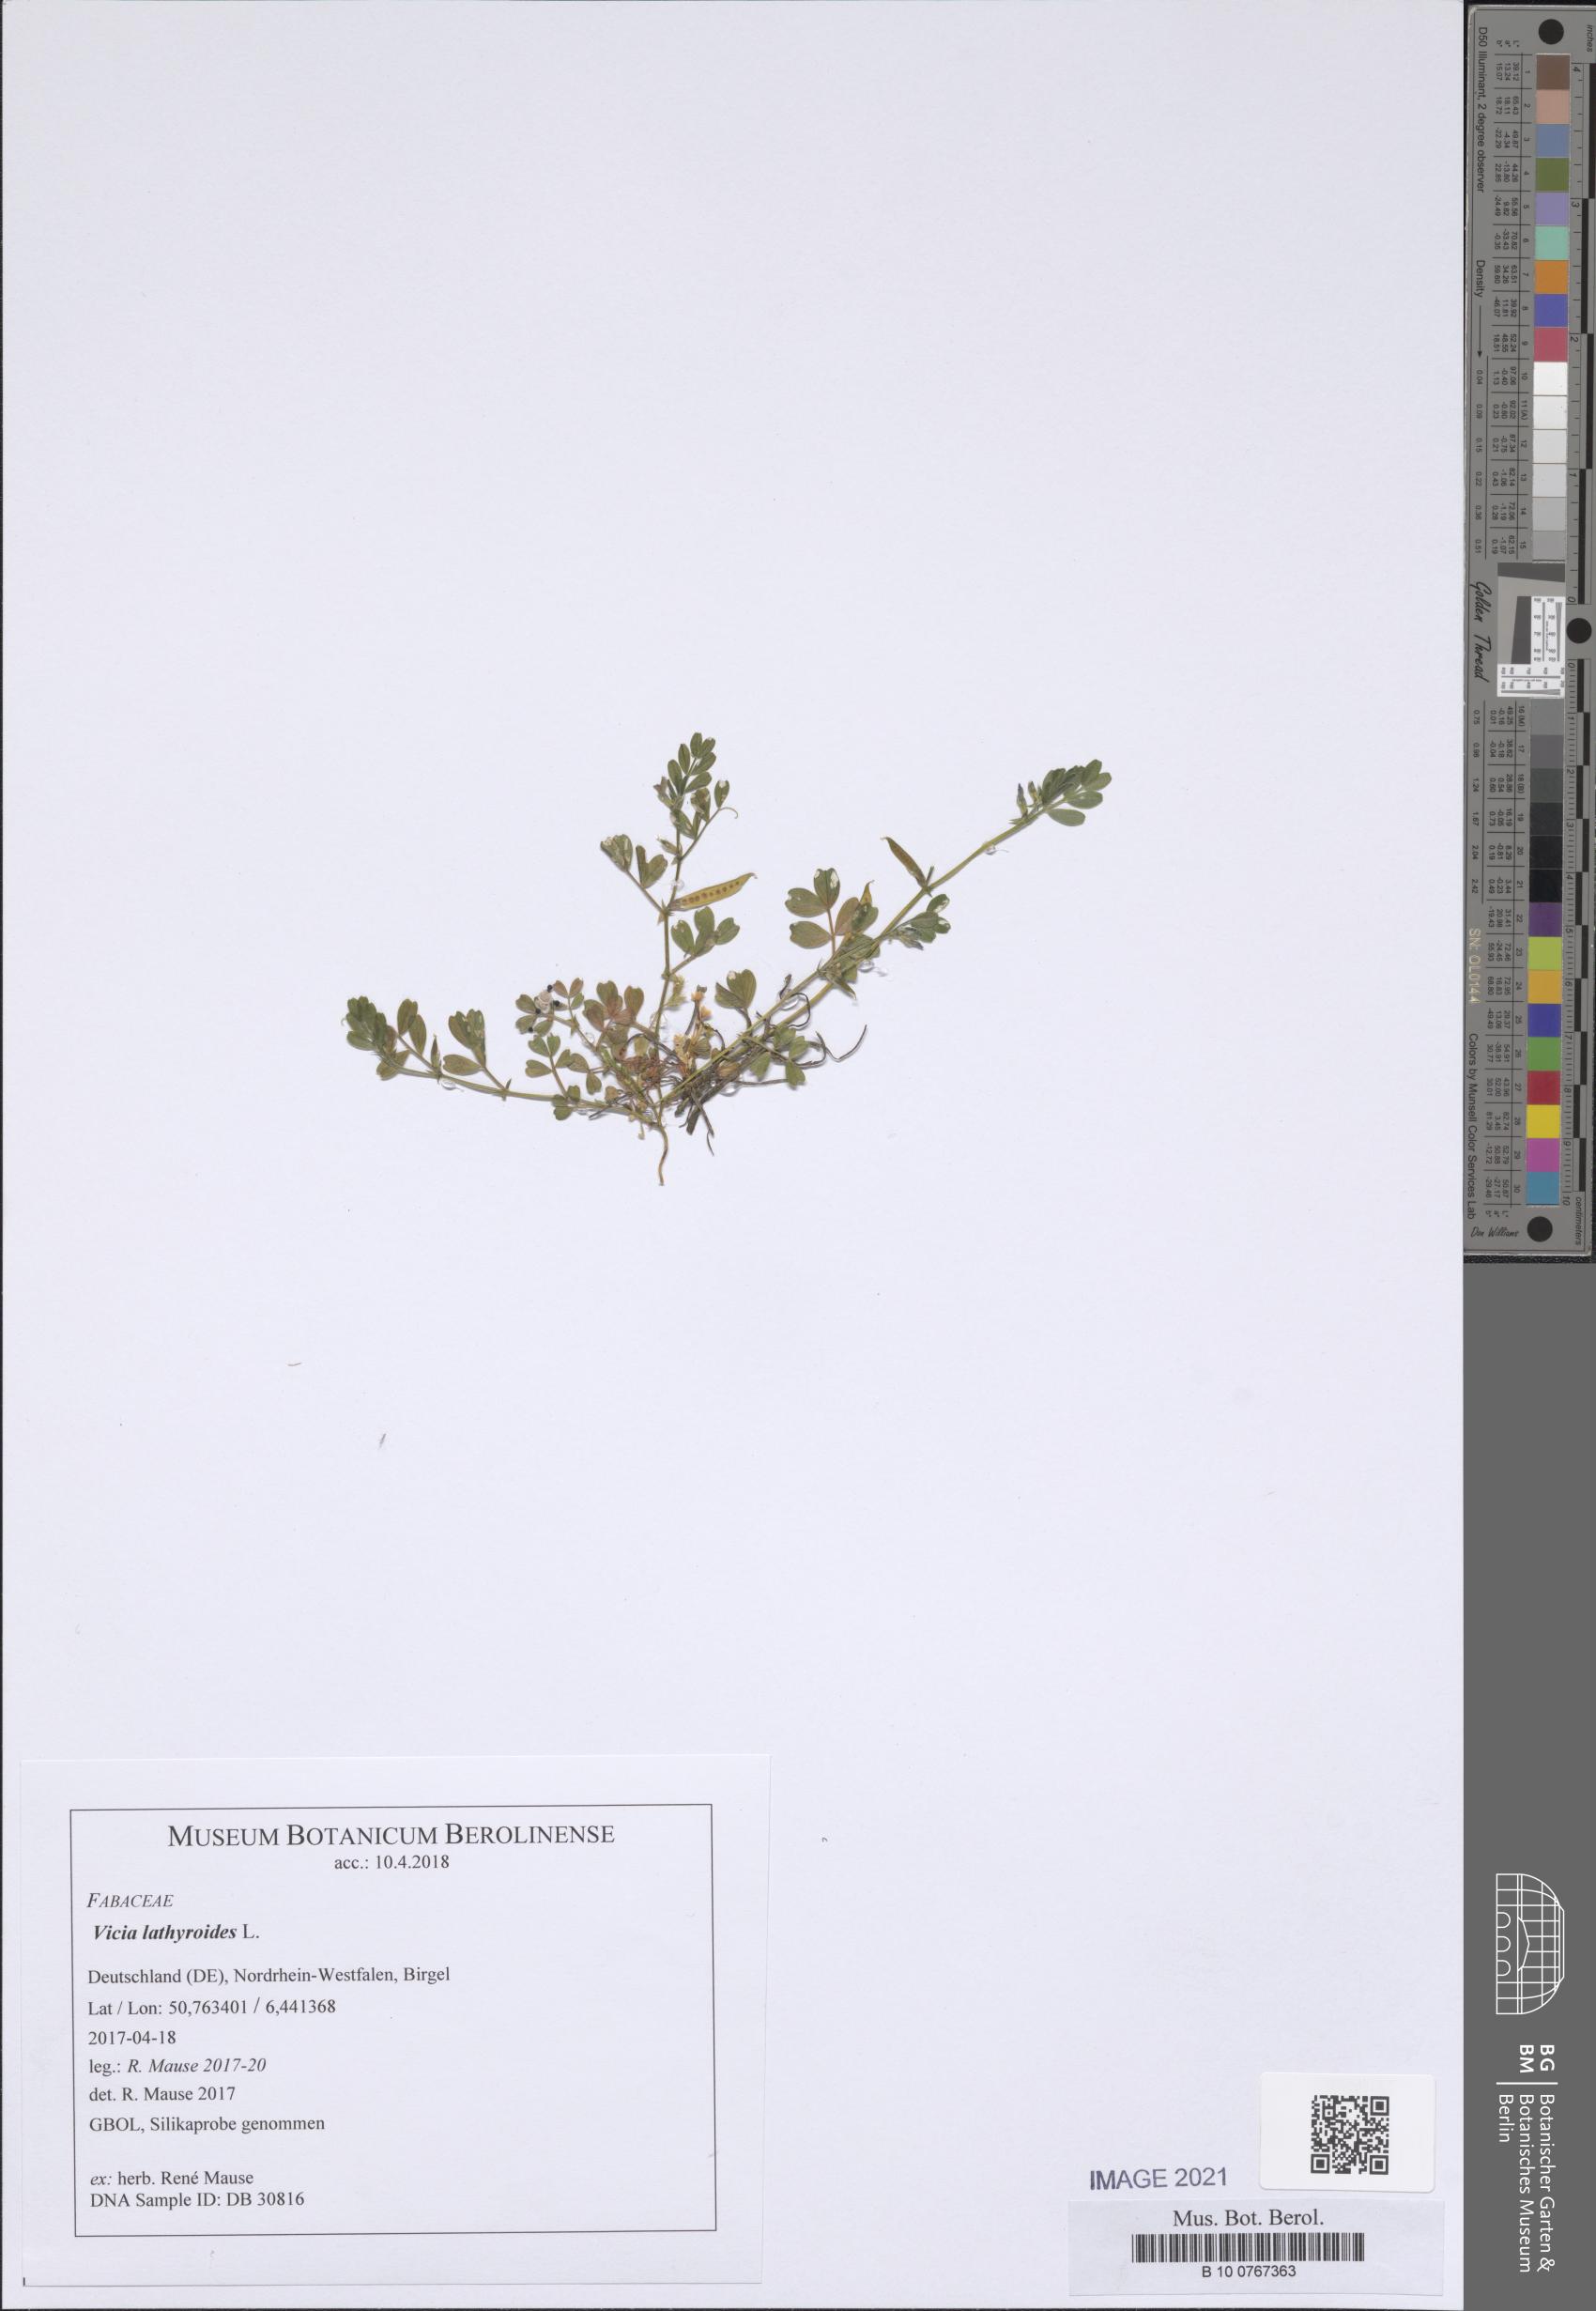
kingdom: Plantae
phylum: Tracheophyta
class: Magnoliopsida
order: Fabales
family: Fabaceae
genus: Vicia
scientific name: Vicia lathyroides
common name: Spring vetch
